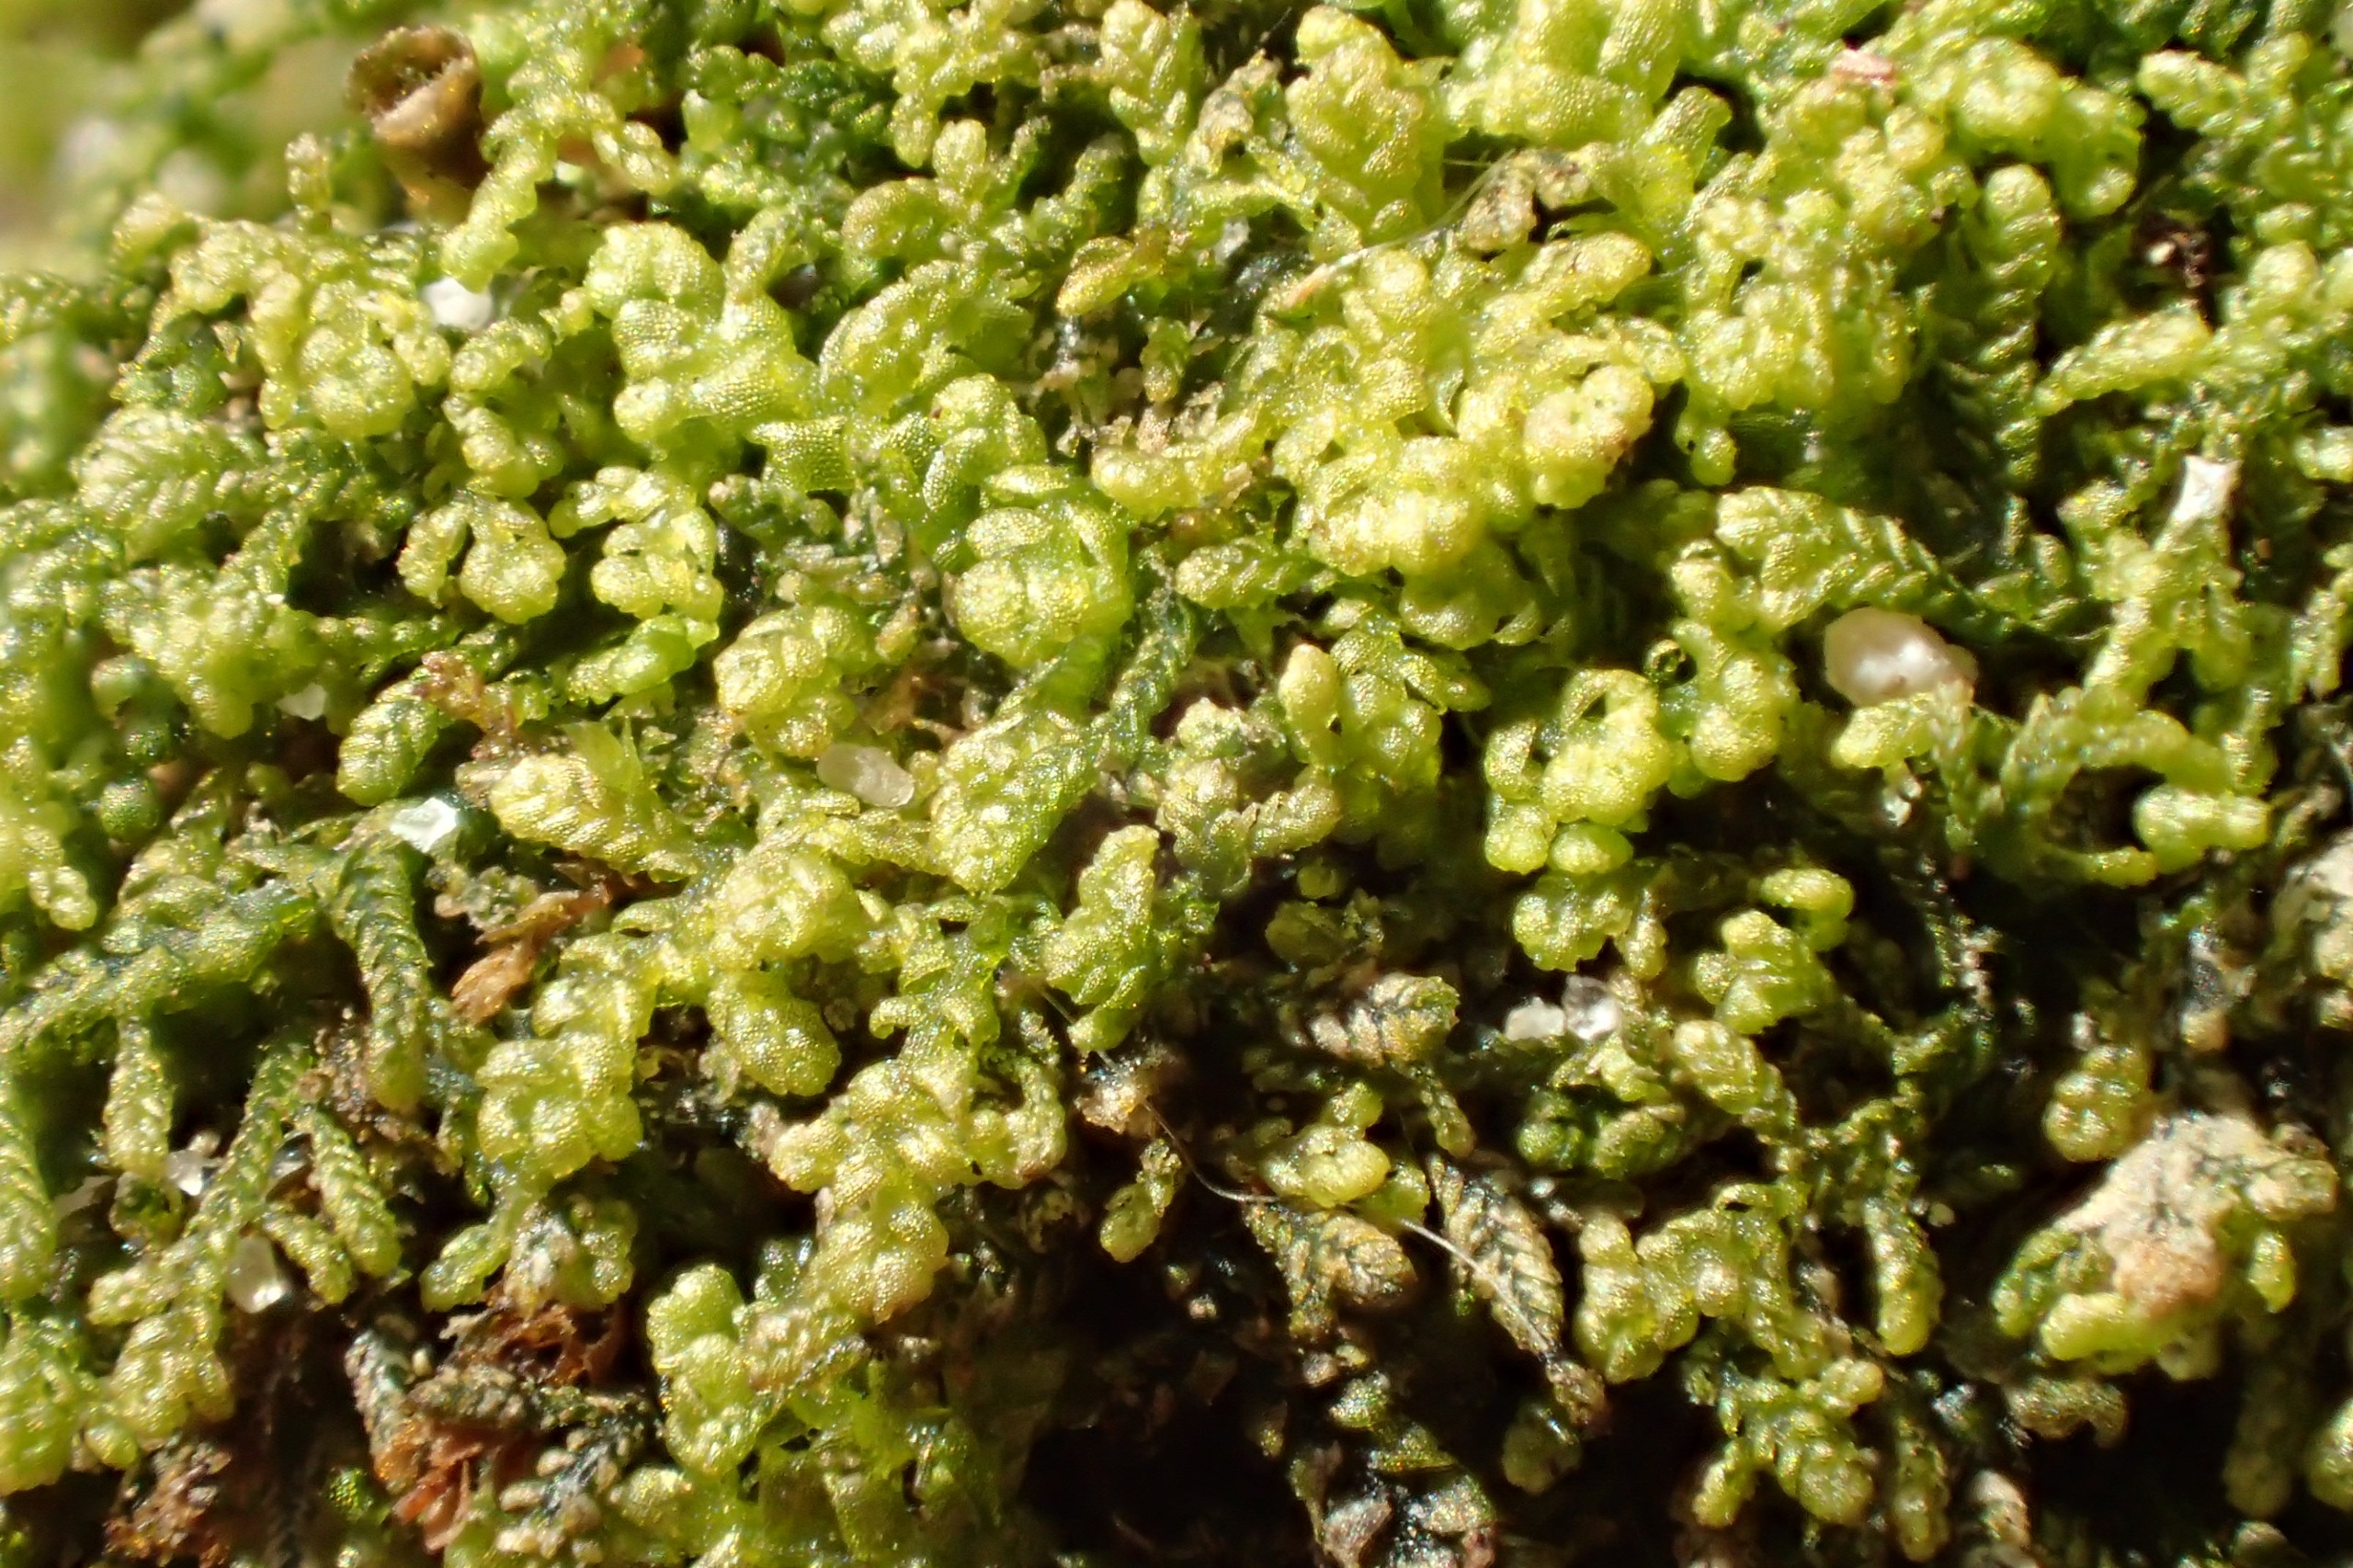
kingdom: Plantae
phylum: Marchantiophyta
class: Jungermanniopsida
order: Jungermanniales
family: Lepidoziaceae
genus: Lepidozia
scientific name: Lepidozia reptans
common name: Krybende fingermos
